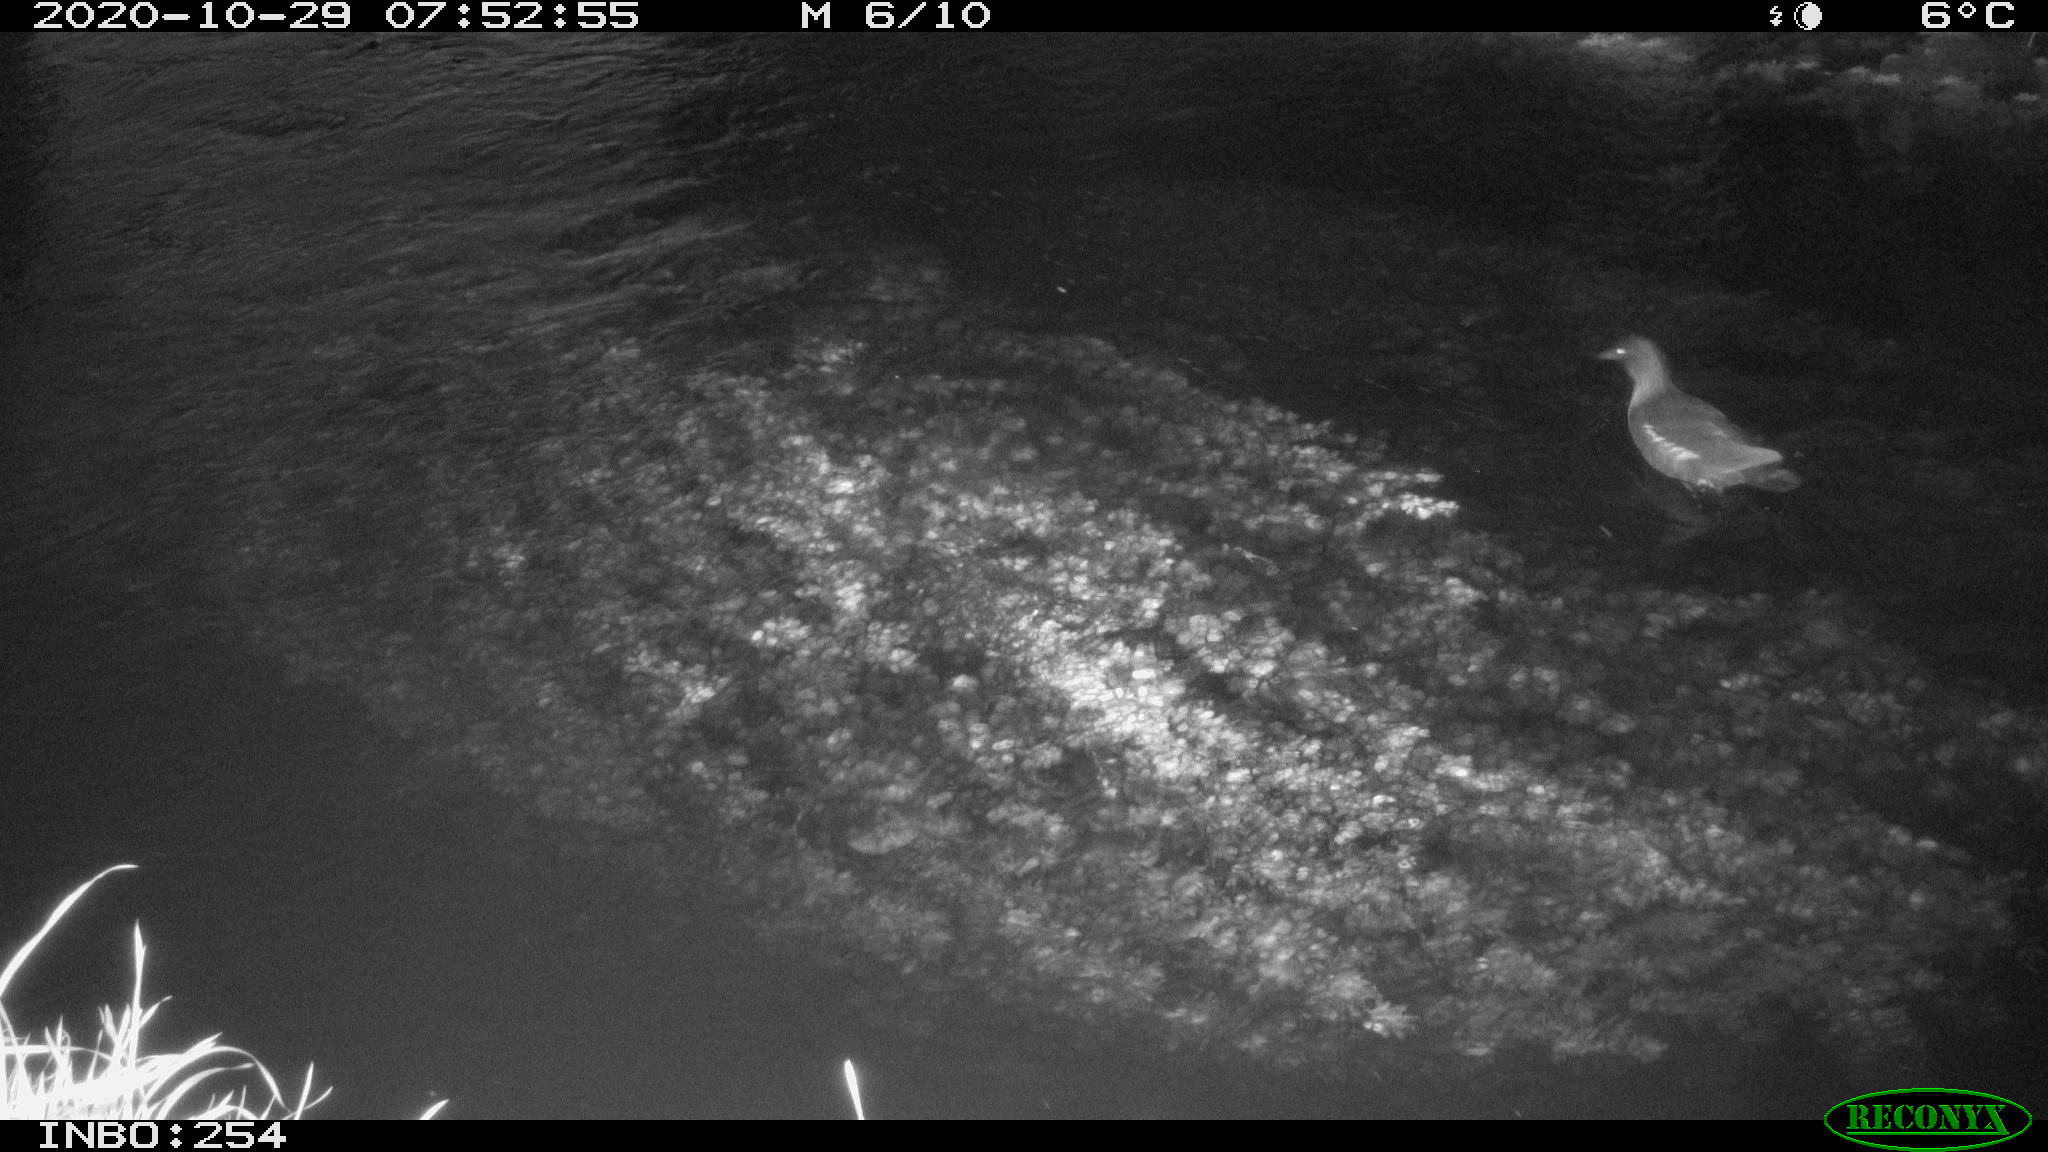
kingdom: Animalia
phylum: Chordata
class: Aves
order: Gruiformes
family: Rallidae
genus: Gallinula
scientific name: Gallinula chloropus
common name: Common moorhen
